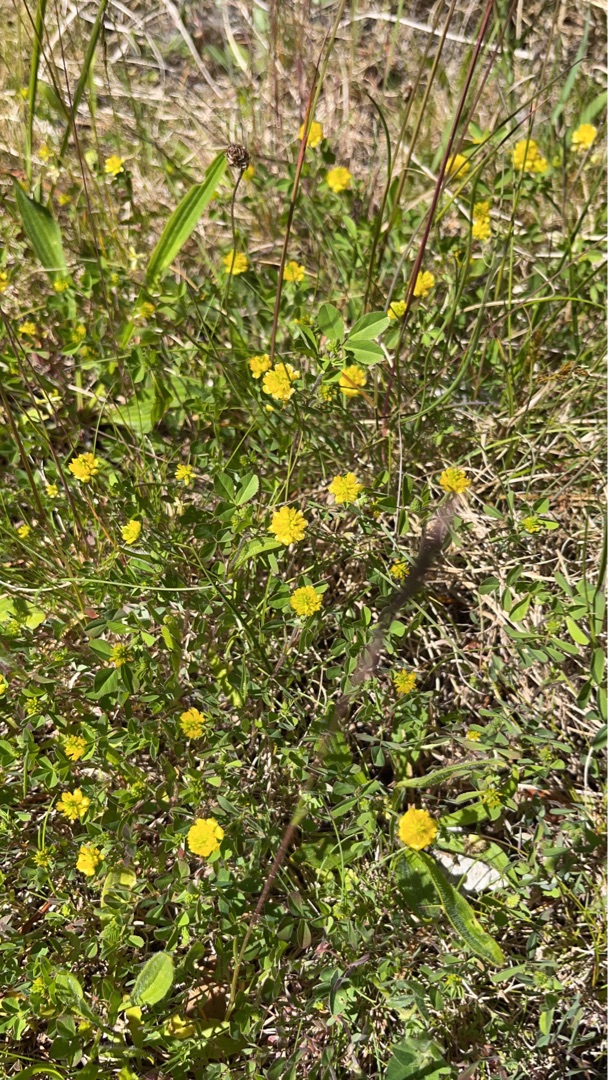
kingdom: Plantae
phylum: Tracheophyta
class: Magnoliopsida
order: Fabales
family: Fabaceae
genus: Trifolium
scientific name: Trifolium campestre
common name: Gul kløver
